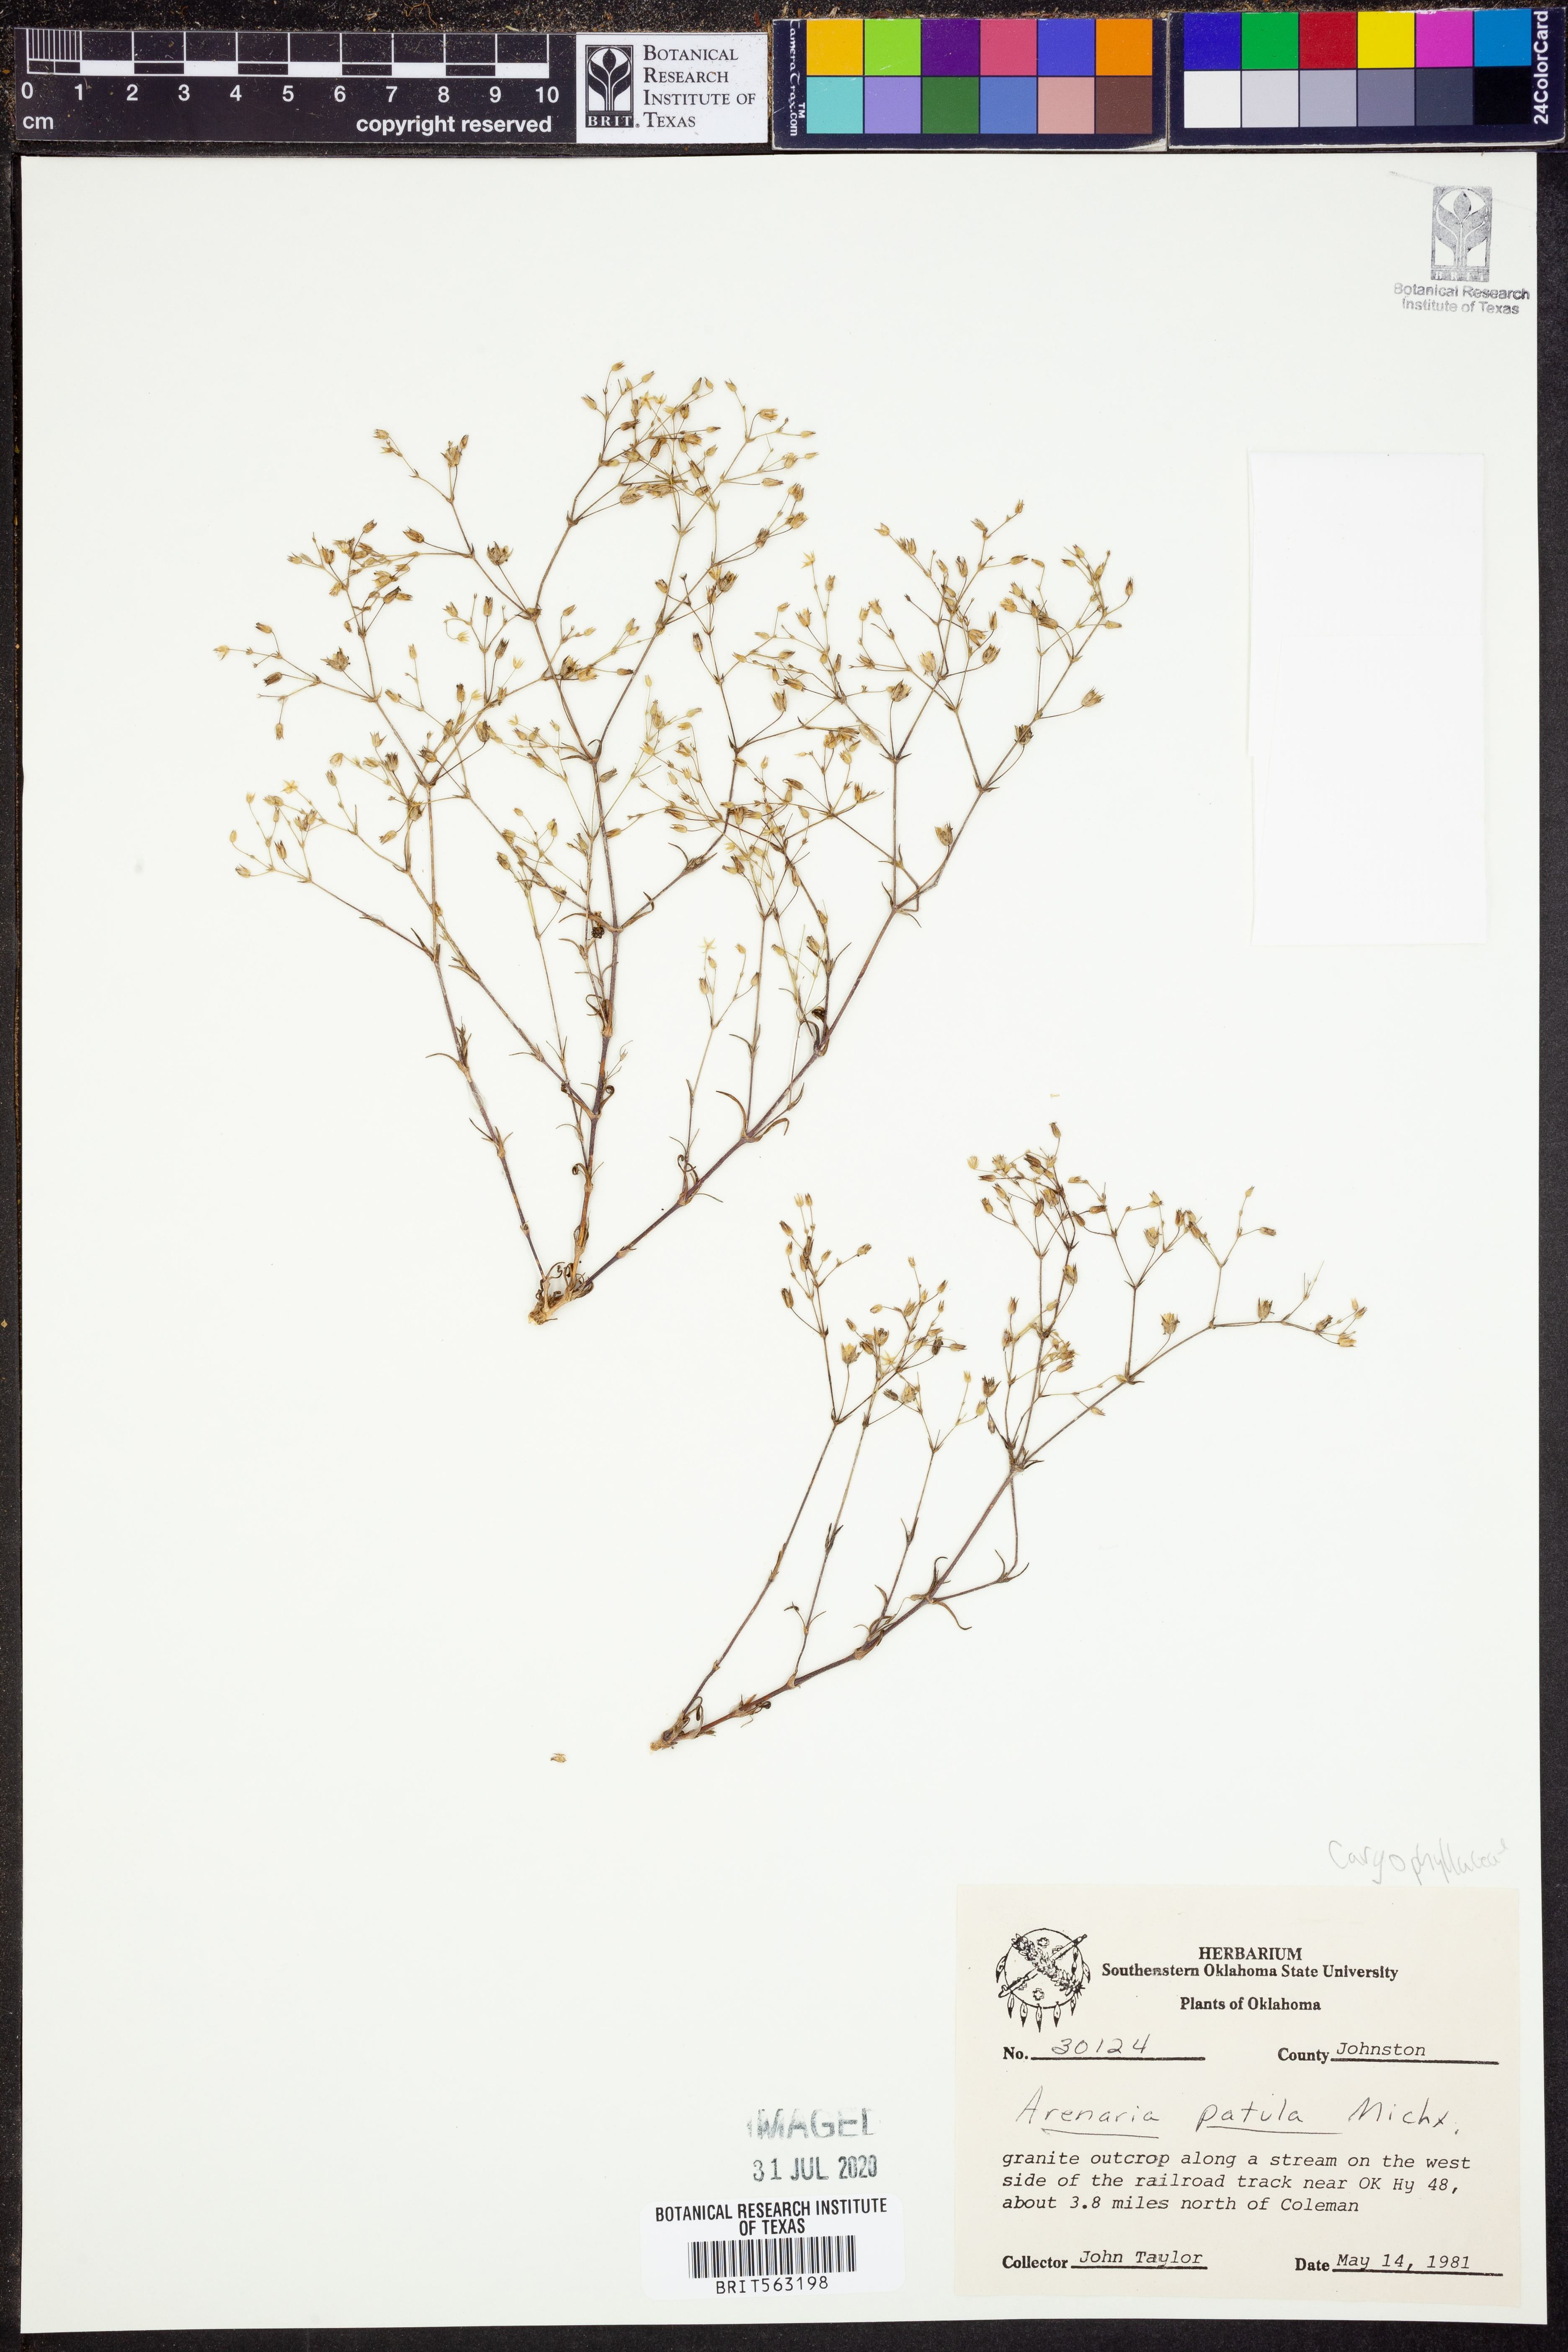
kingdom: Plantae
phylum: Tracheophyta
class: Magnoliopsida
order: Caryophyllales
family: Caryophyllaceae
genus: Mononeuria
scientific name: Mononeuria patula
